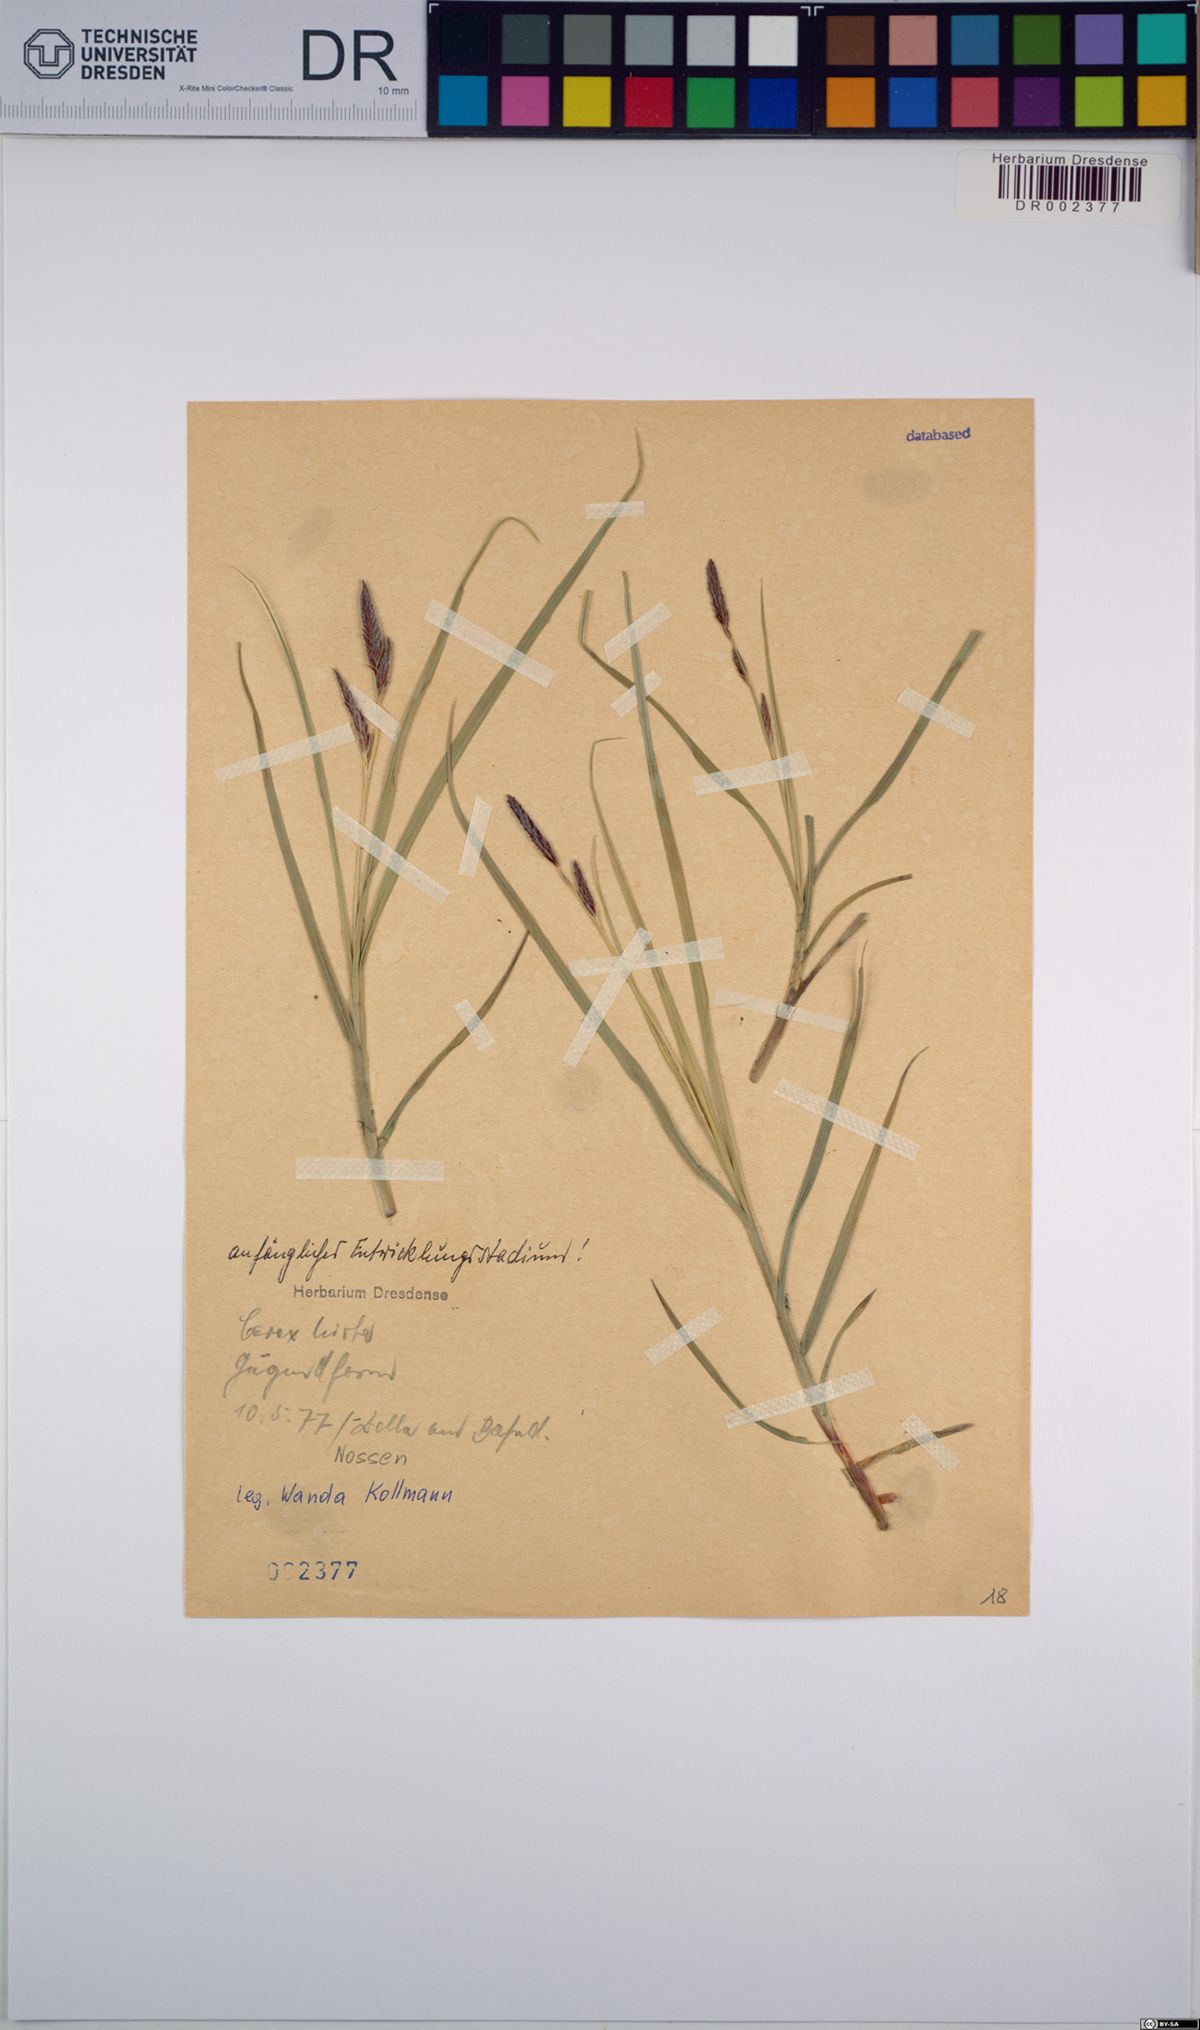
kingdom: Plantae
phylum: Tracheophyta
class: Liliopsida
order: Poales
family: Cyperaceae
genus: Carex
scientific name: Carex hirta
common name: Hairy sedge
